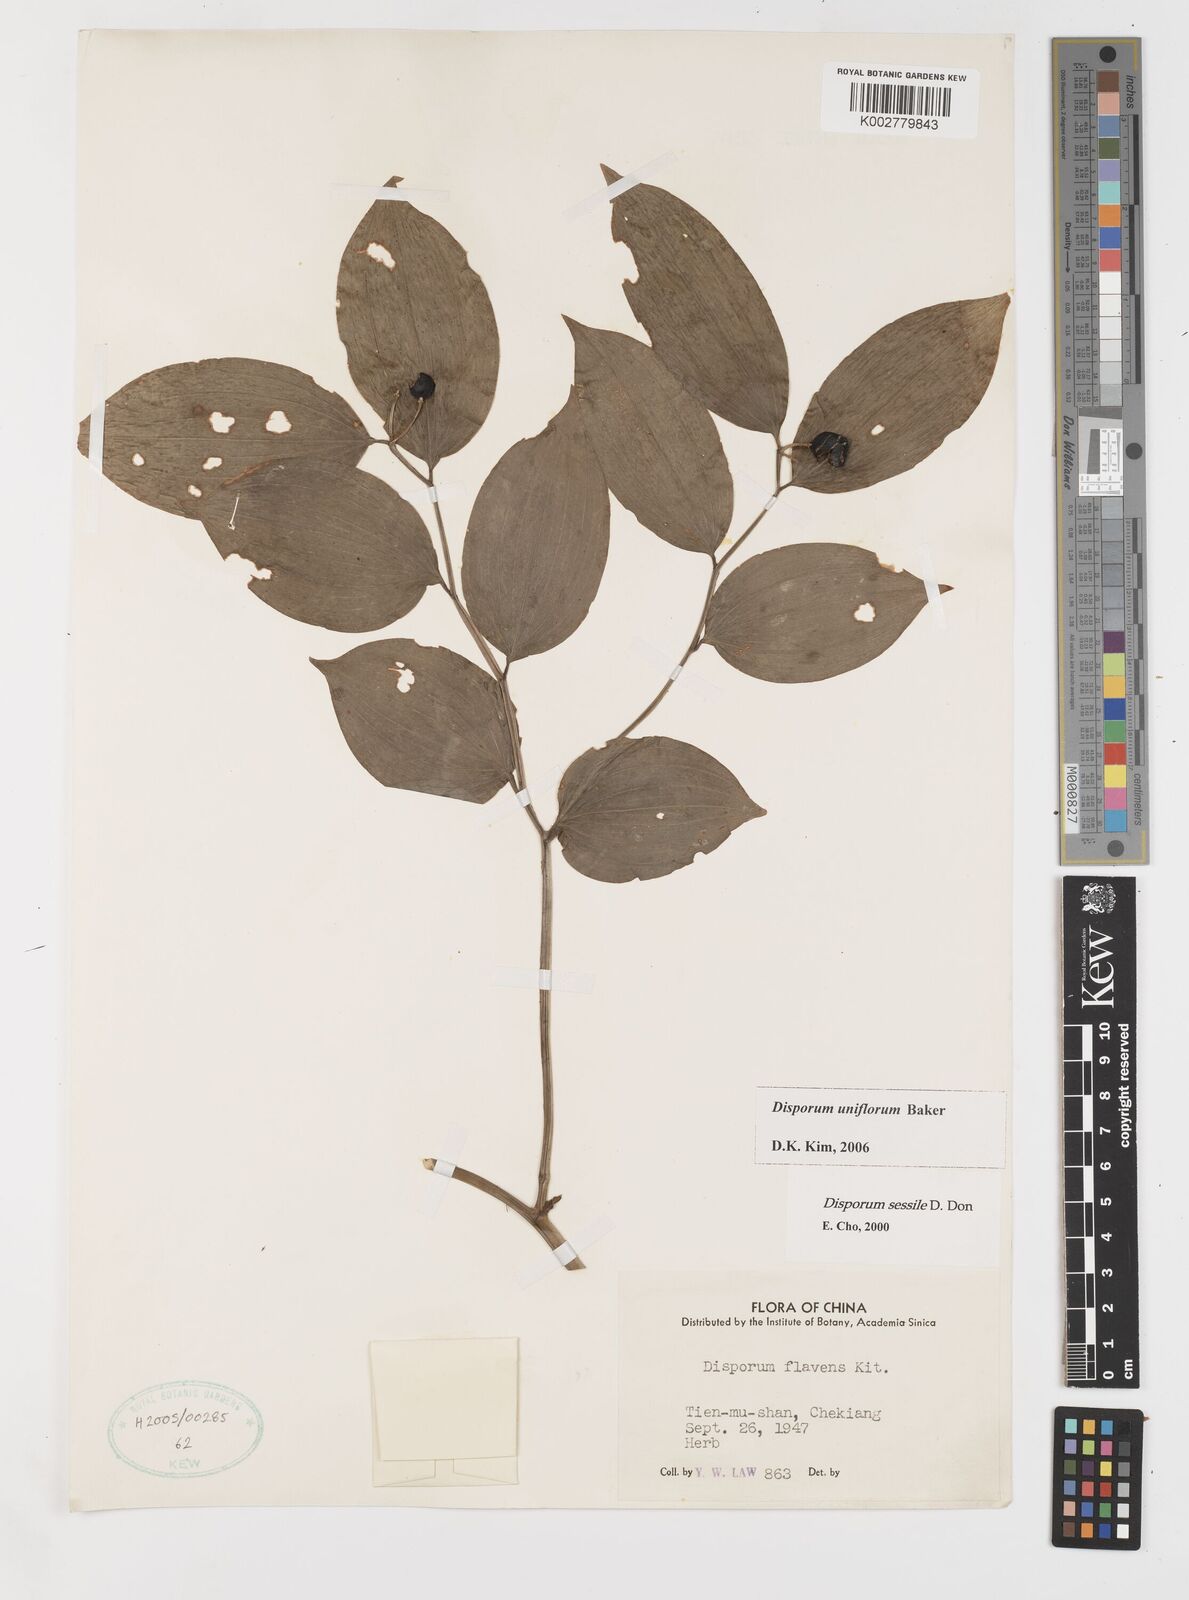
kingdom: Plantae
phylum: Tracheophyta
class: Liliopsida
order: Liliales
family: Colchicaceae
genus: Disporum
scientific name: Disporum uniflorum
